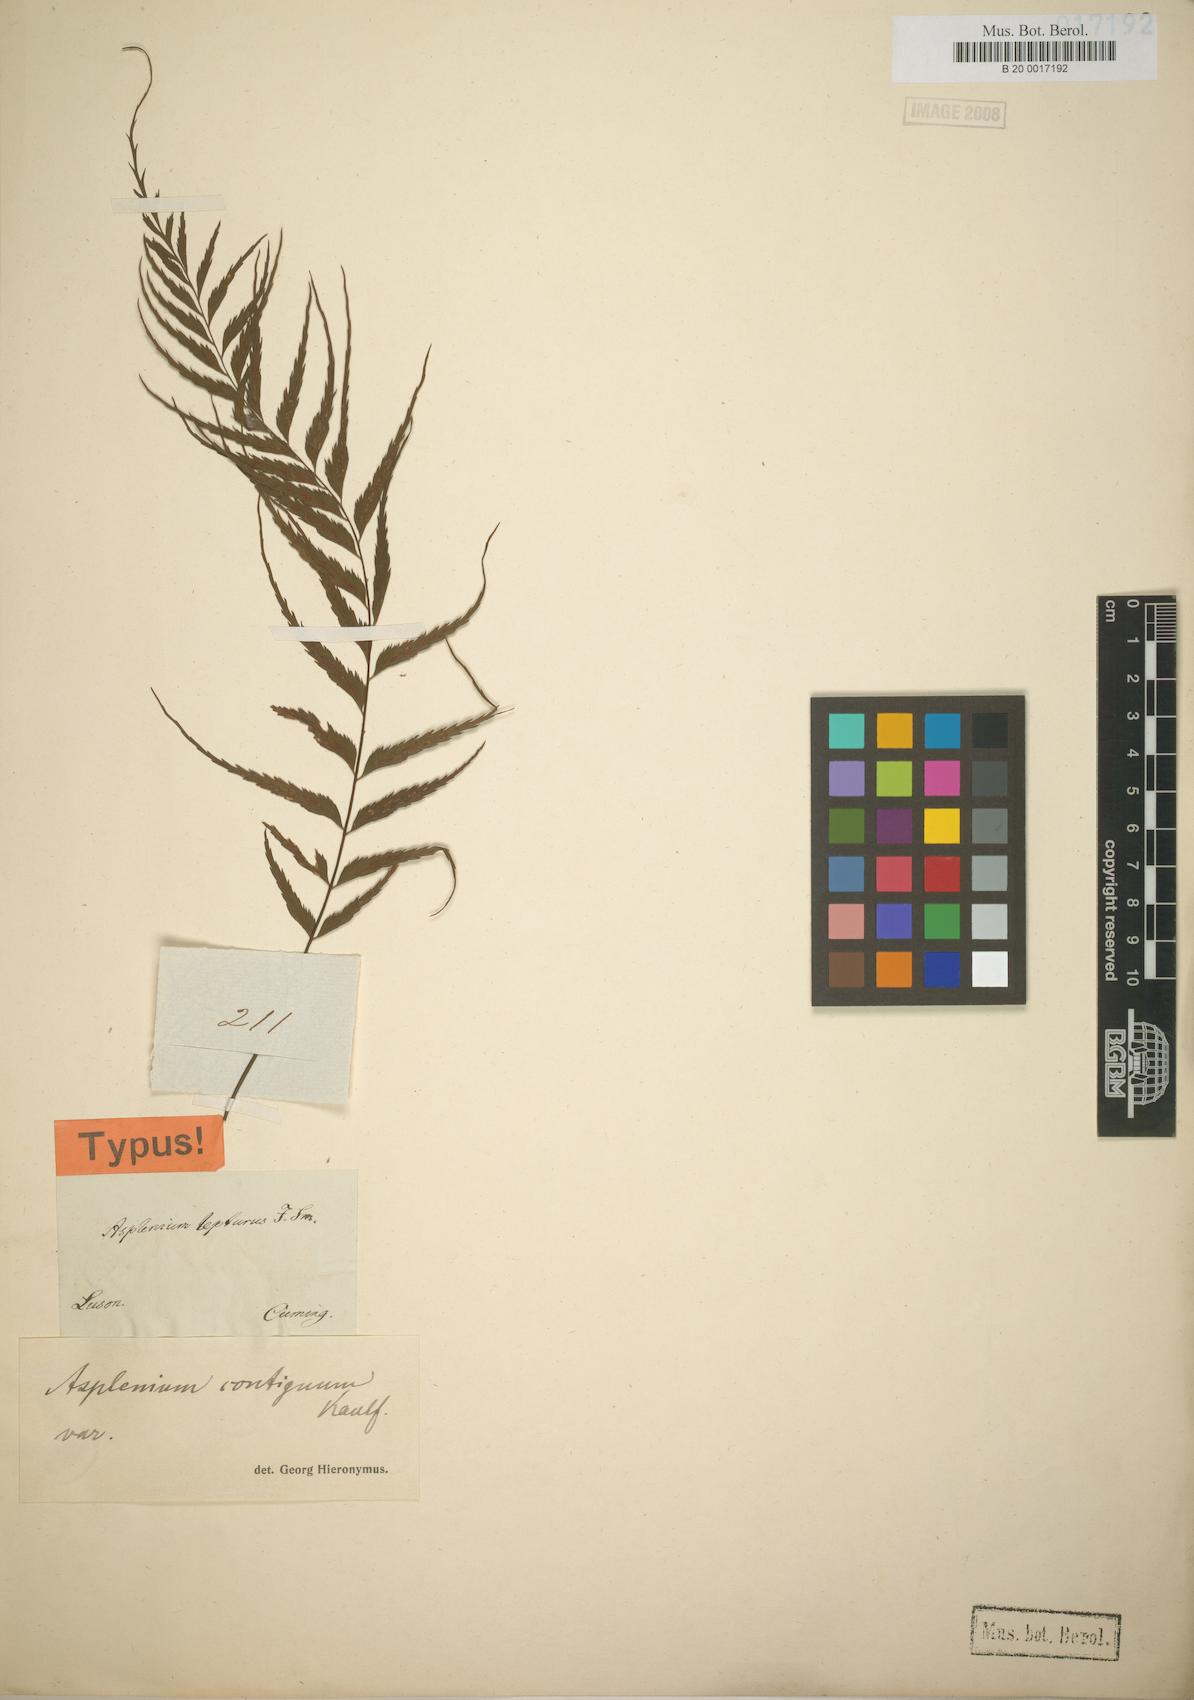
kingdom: Plantae
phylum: Tracheophyta
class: Polypodiopsida
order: Polypodiales
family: Aspleniaceae
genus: Asplenium
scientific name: Asplenium lepturus
